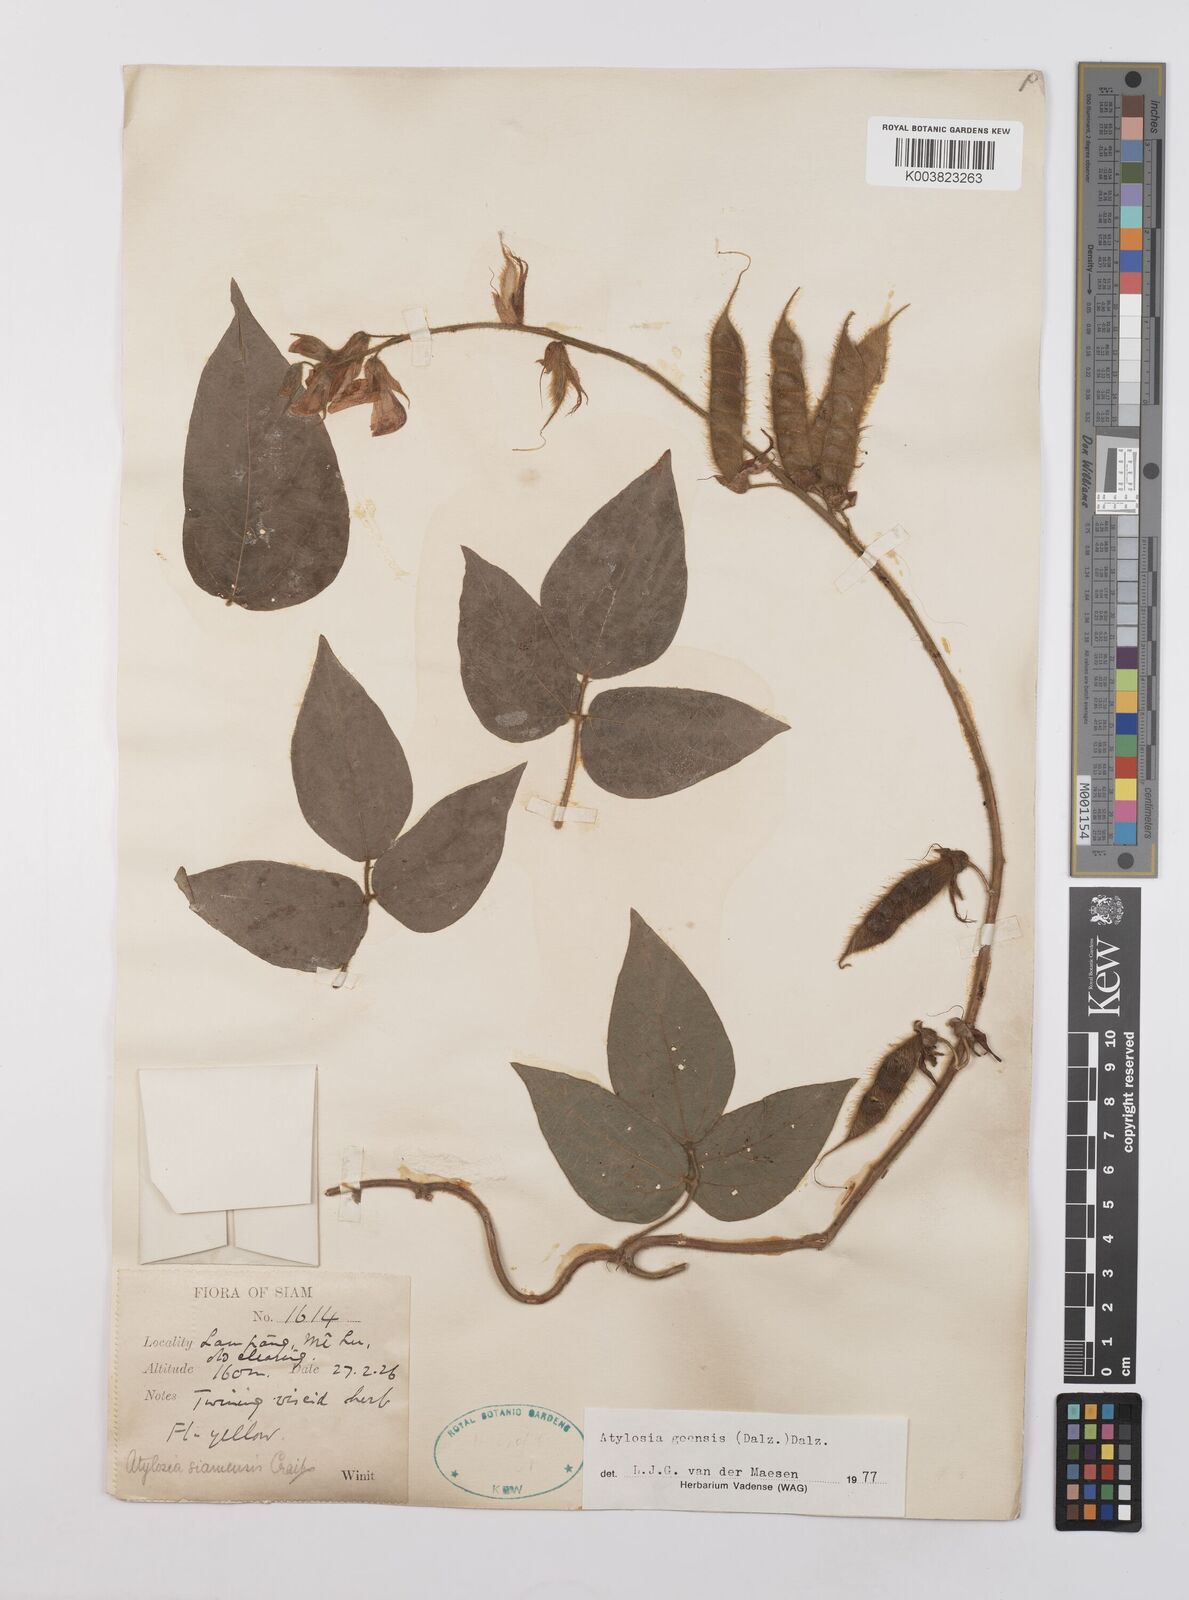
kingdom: Plantae
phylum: Tracheophyta
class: Magnoliopsida
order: Fabales
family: Fabaceae
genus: Cajanus
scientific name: Cajanus goensis
